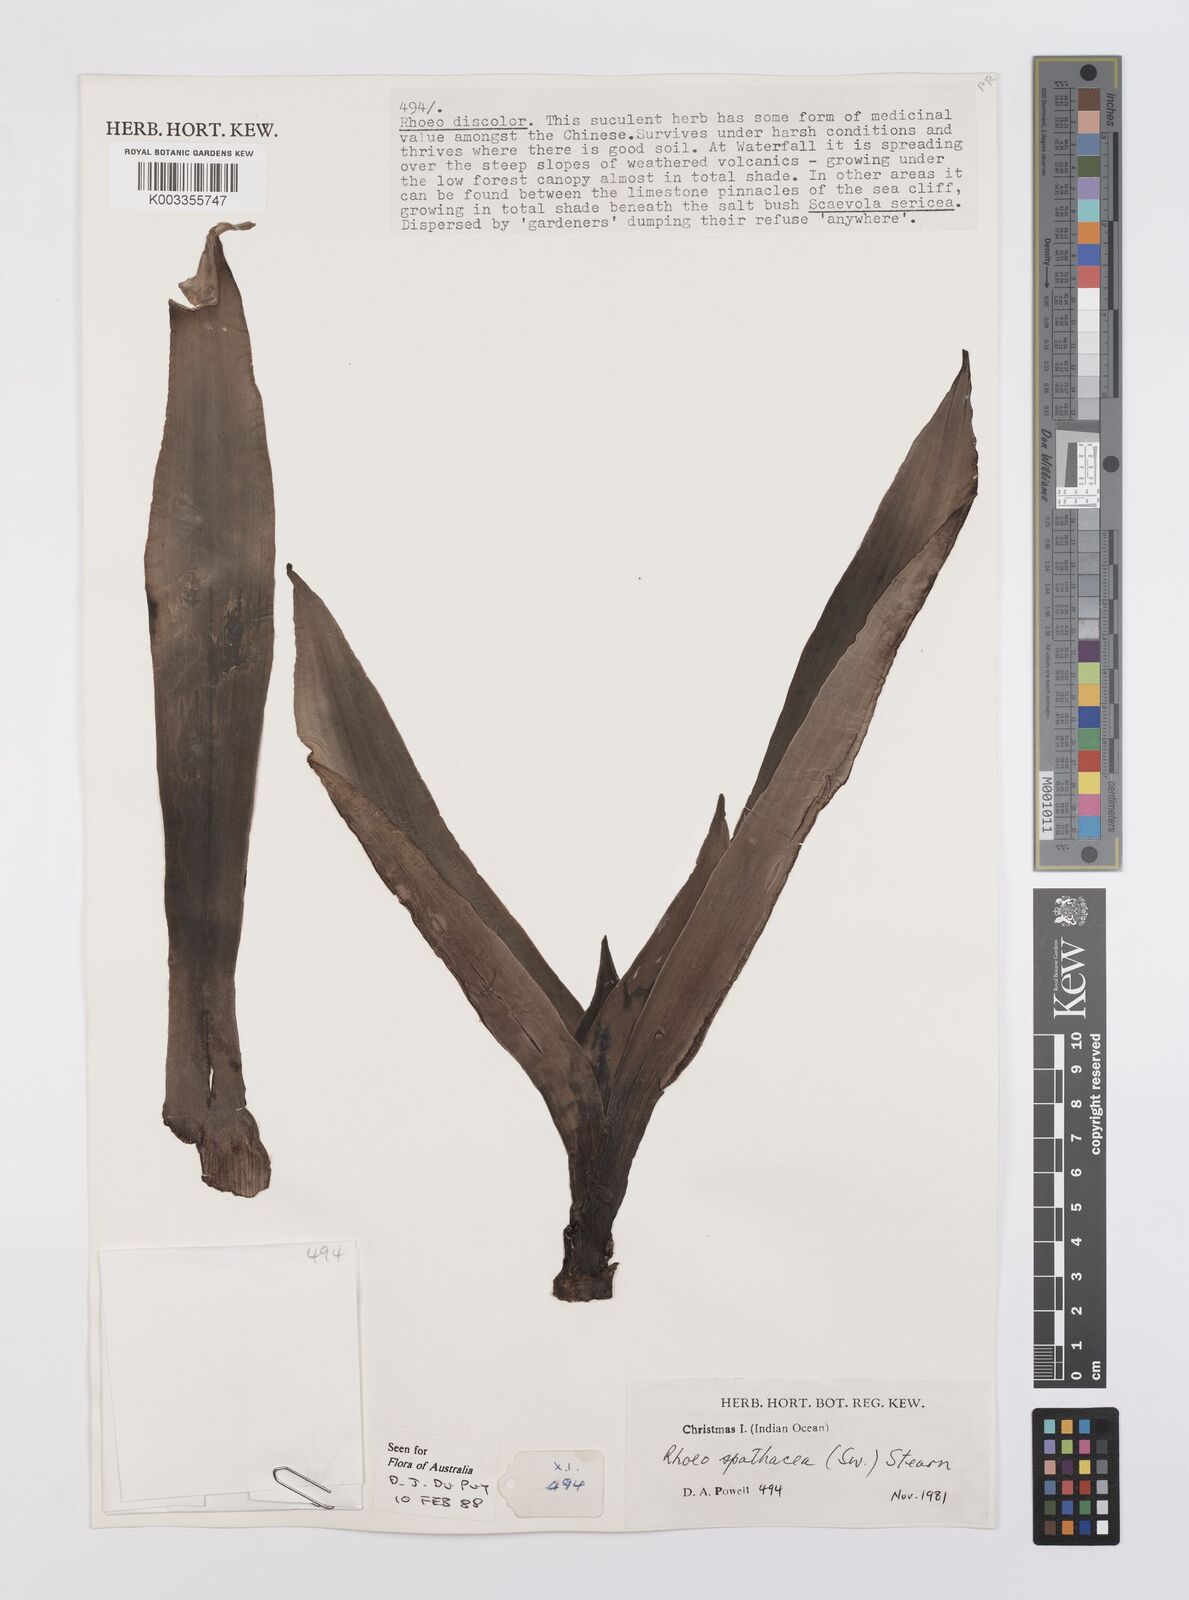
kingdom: Plantae
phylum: Tracheophyta
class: Liliopsida
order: Commelinales
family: Commelinaceae
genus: Tradescantia
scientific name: Tradescantia spathacea
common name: Boatlily
